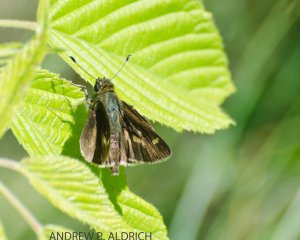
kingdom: Animalia
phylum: Arthropoda
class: Insecta
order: Lepidoptera
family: Hesperiidae
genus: Vernia
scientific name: Vernia verna
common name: Little Glassywing
